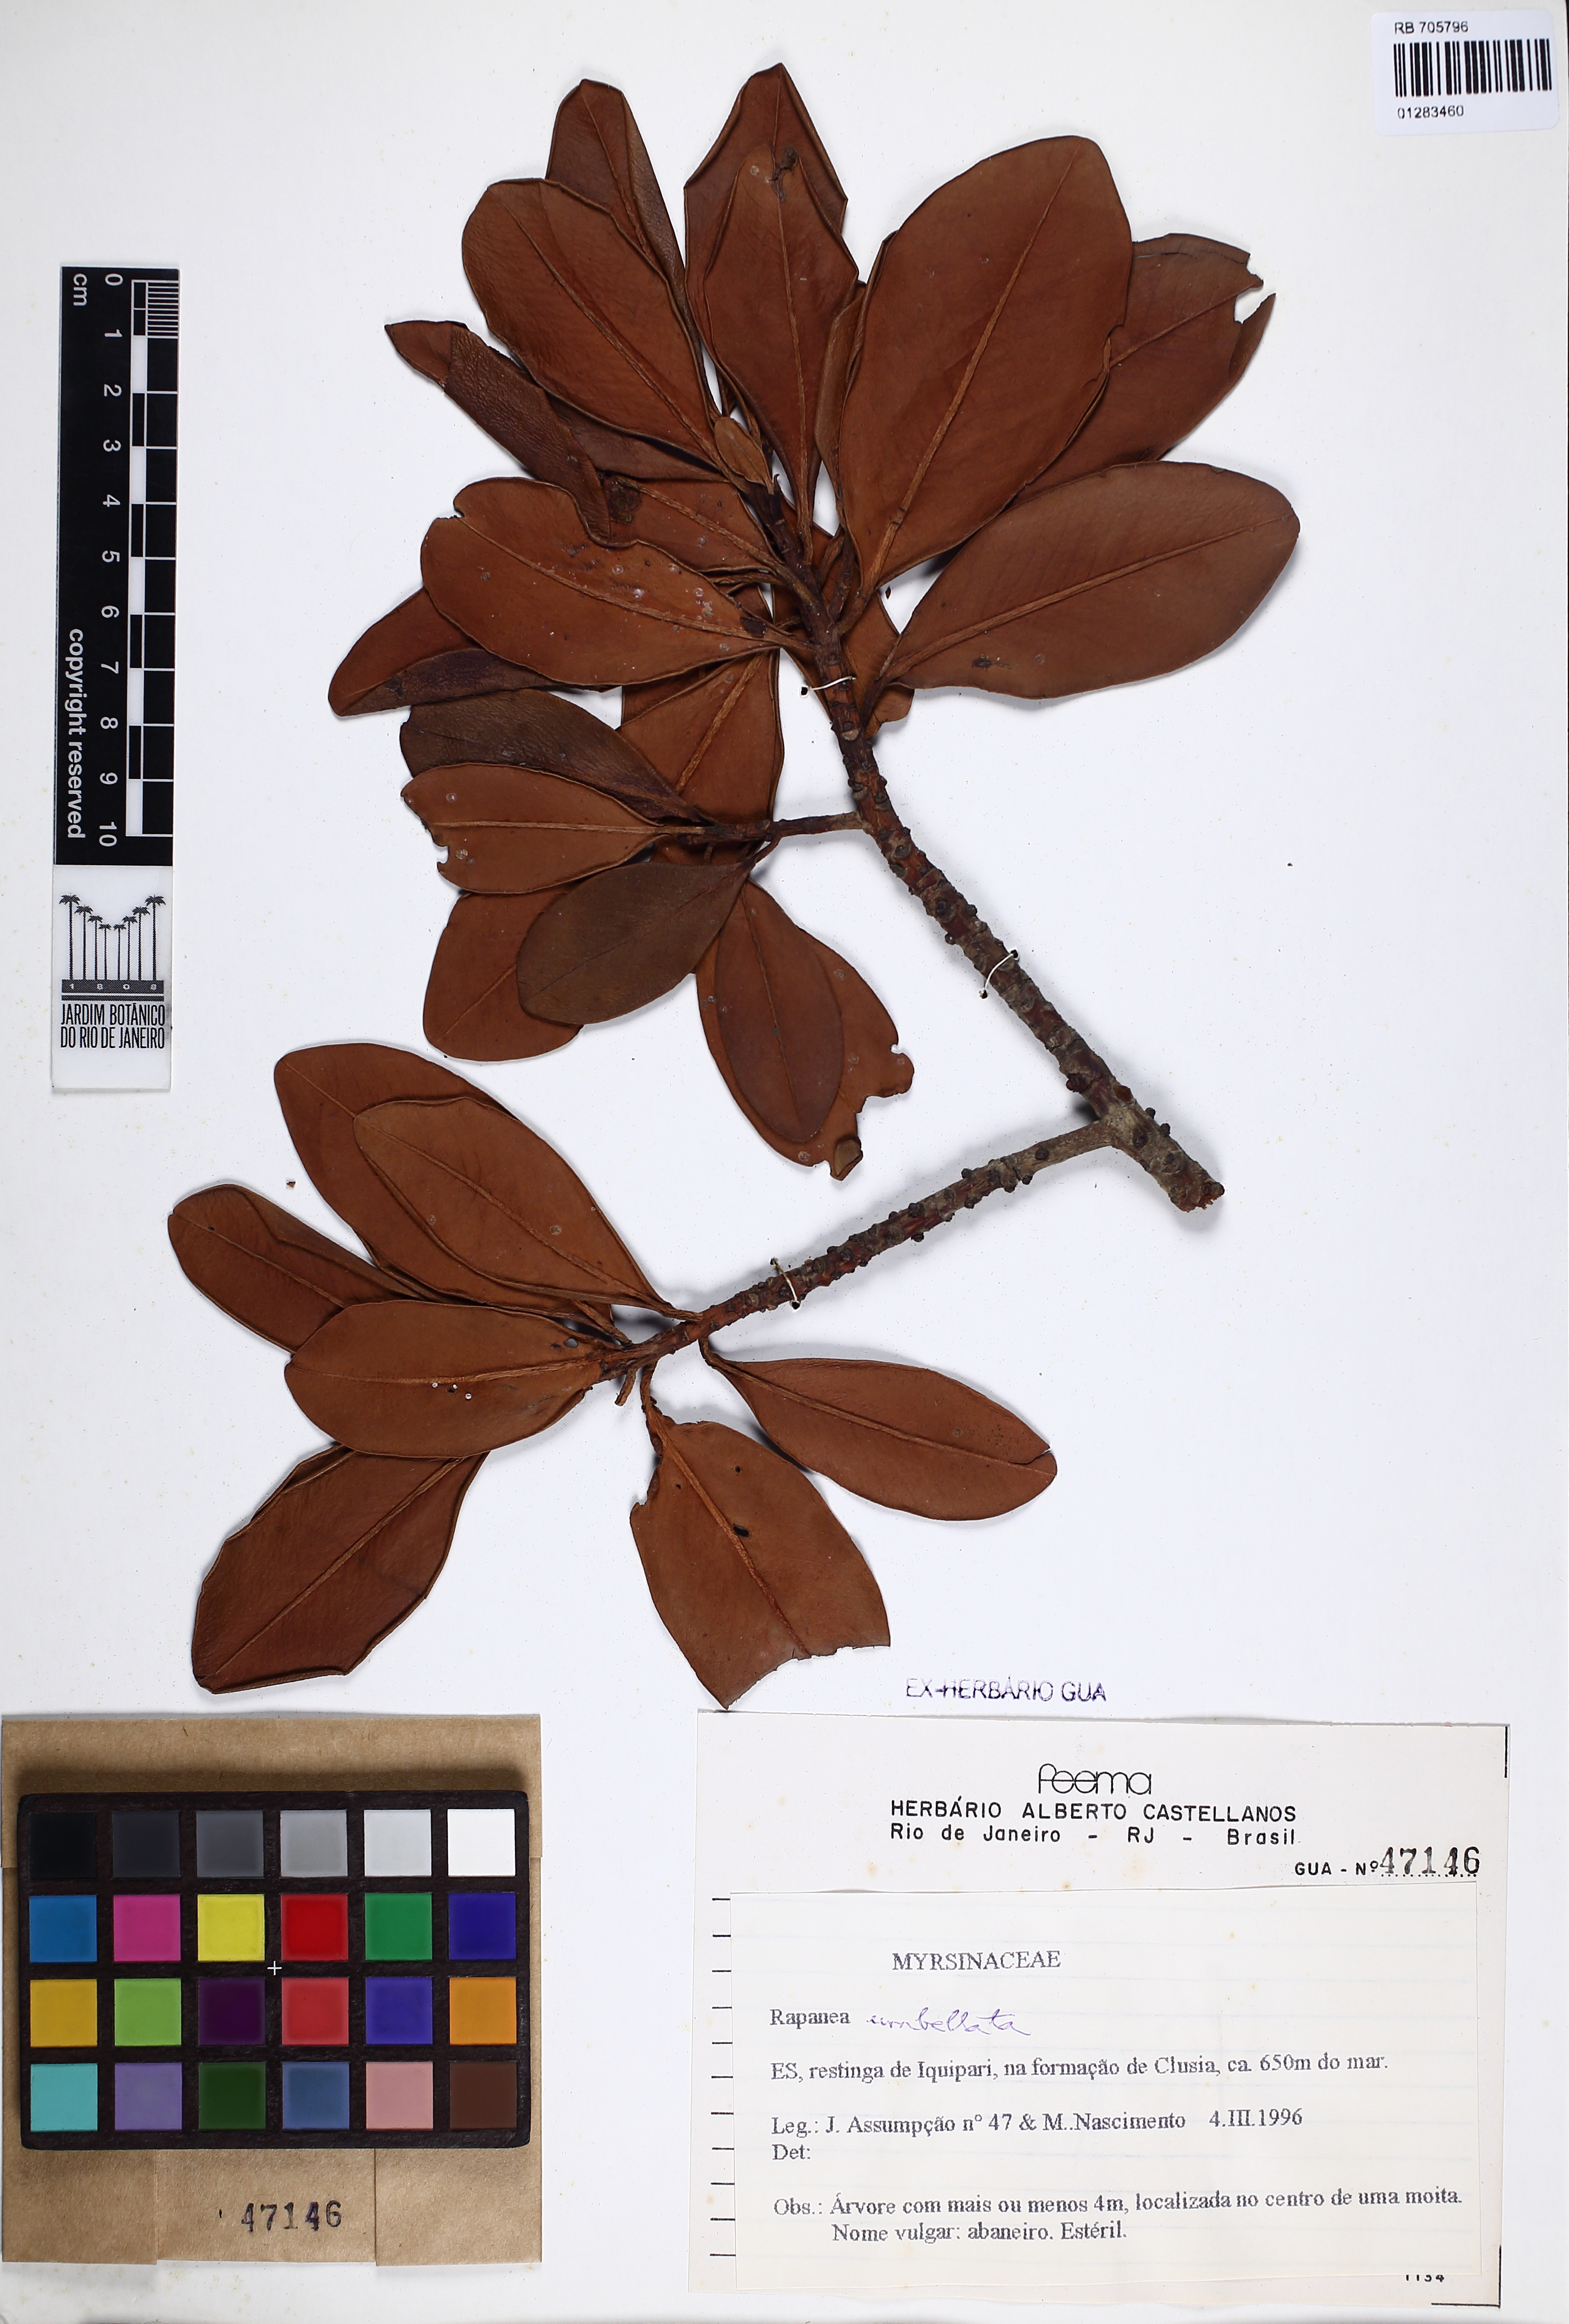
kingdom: Plantae
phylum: Tracheophyta
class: Magnoliopsida
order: Ericales
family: Primulaceae
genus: Myrsine
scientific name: Myrsine umbellata
